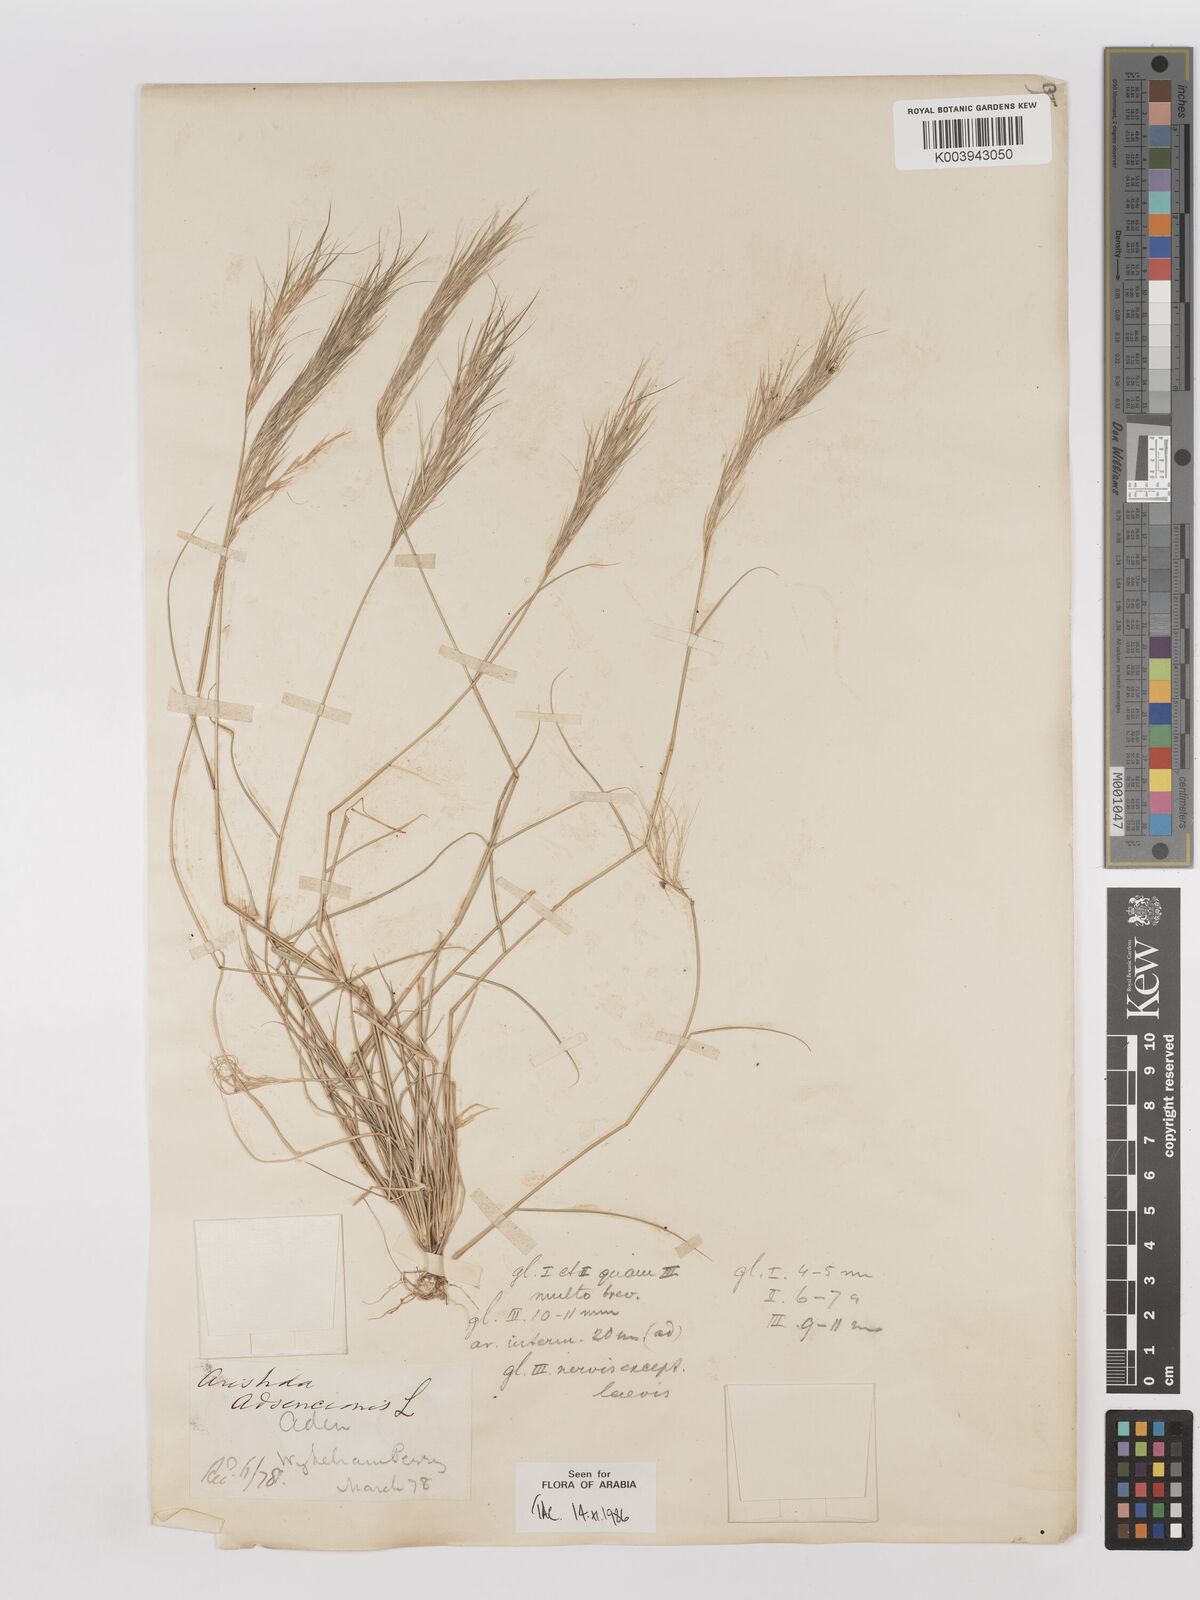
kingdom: Plantae
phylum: Tracheophyta
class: Liliopsida
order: Poales
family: Poaceae
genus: Aristida
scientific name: Aristida adscensionis
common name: Sixweeks threeawn
